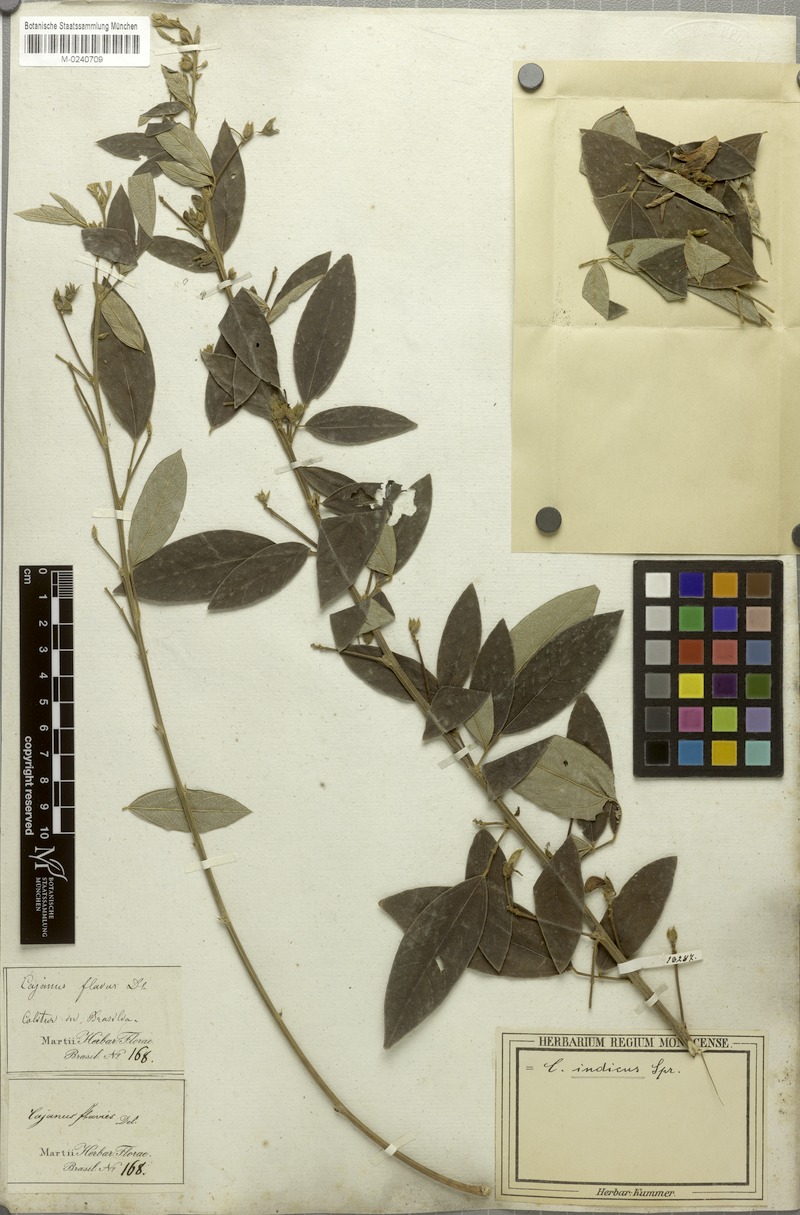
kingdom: Plantae
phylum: Tracheophyta
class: Magnoliopsida
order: Fabales
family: Fabaceae
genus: Cajanus
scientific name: Cajanus cajan
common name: Pigeonpea
